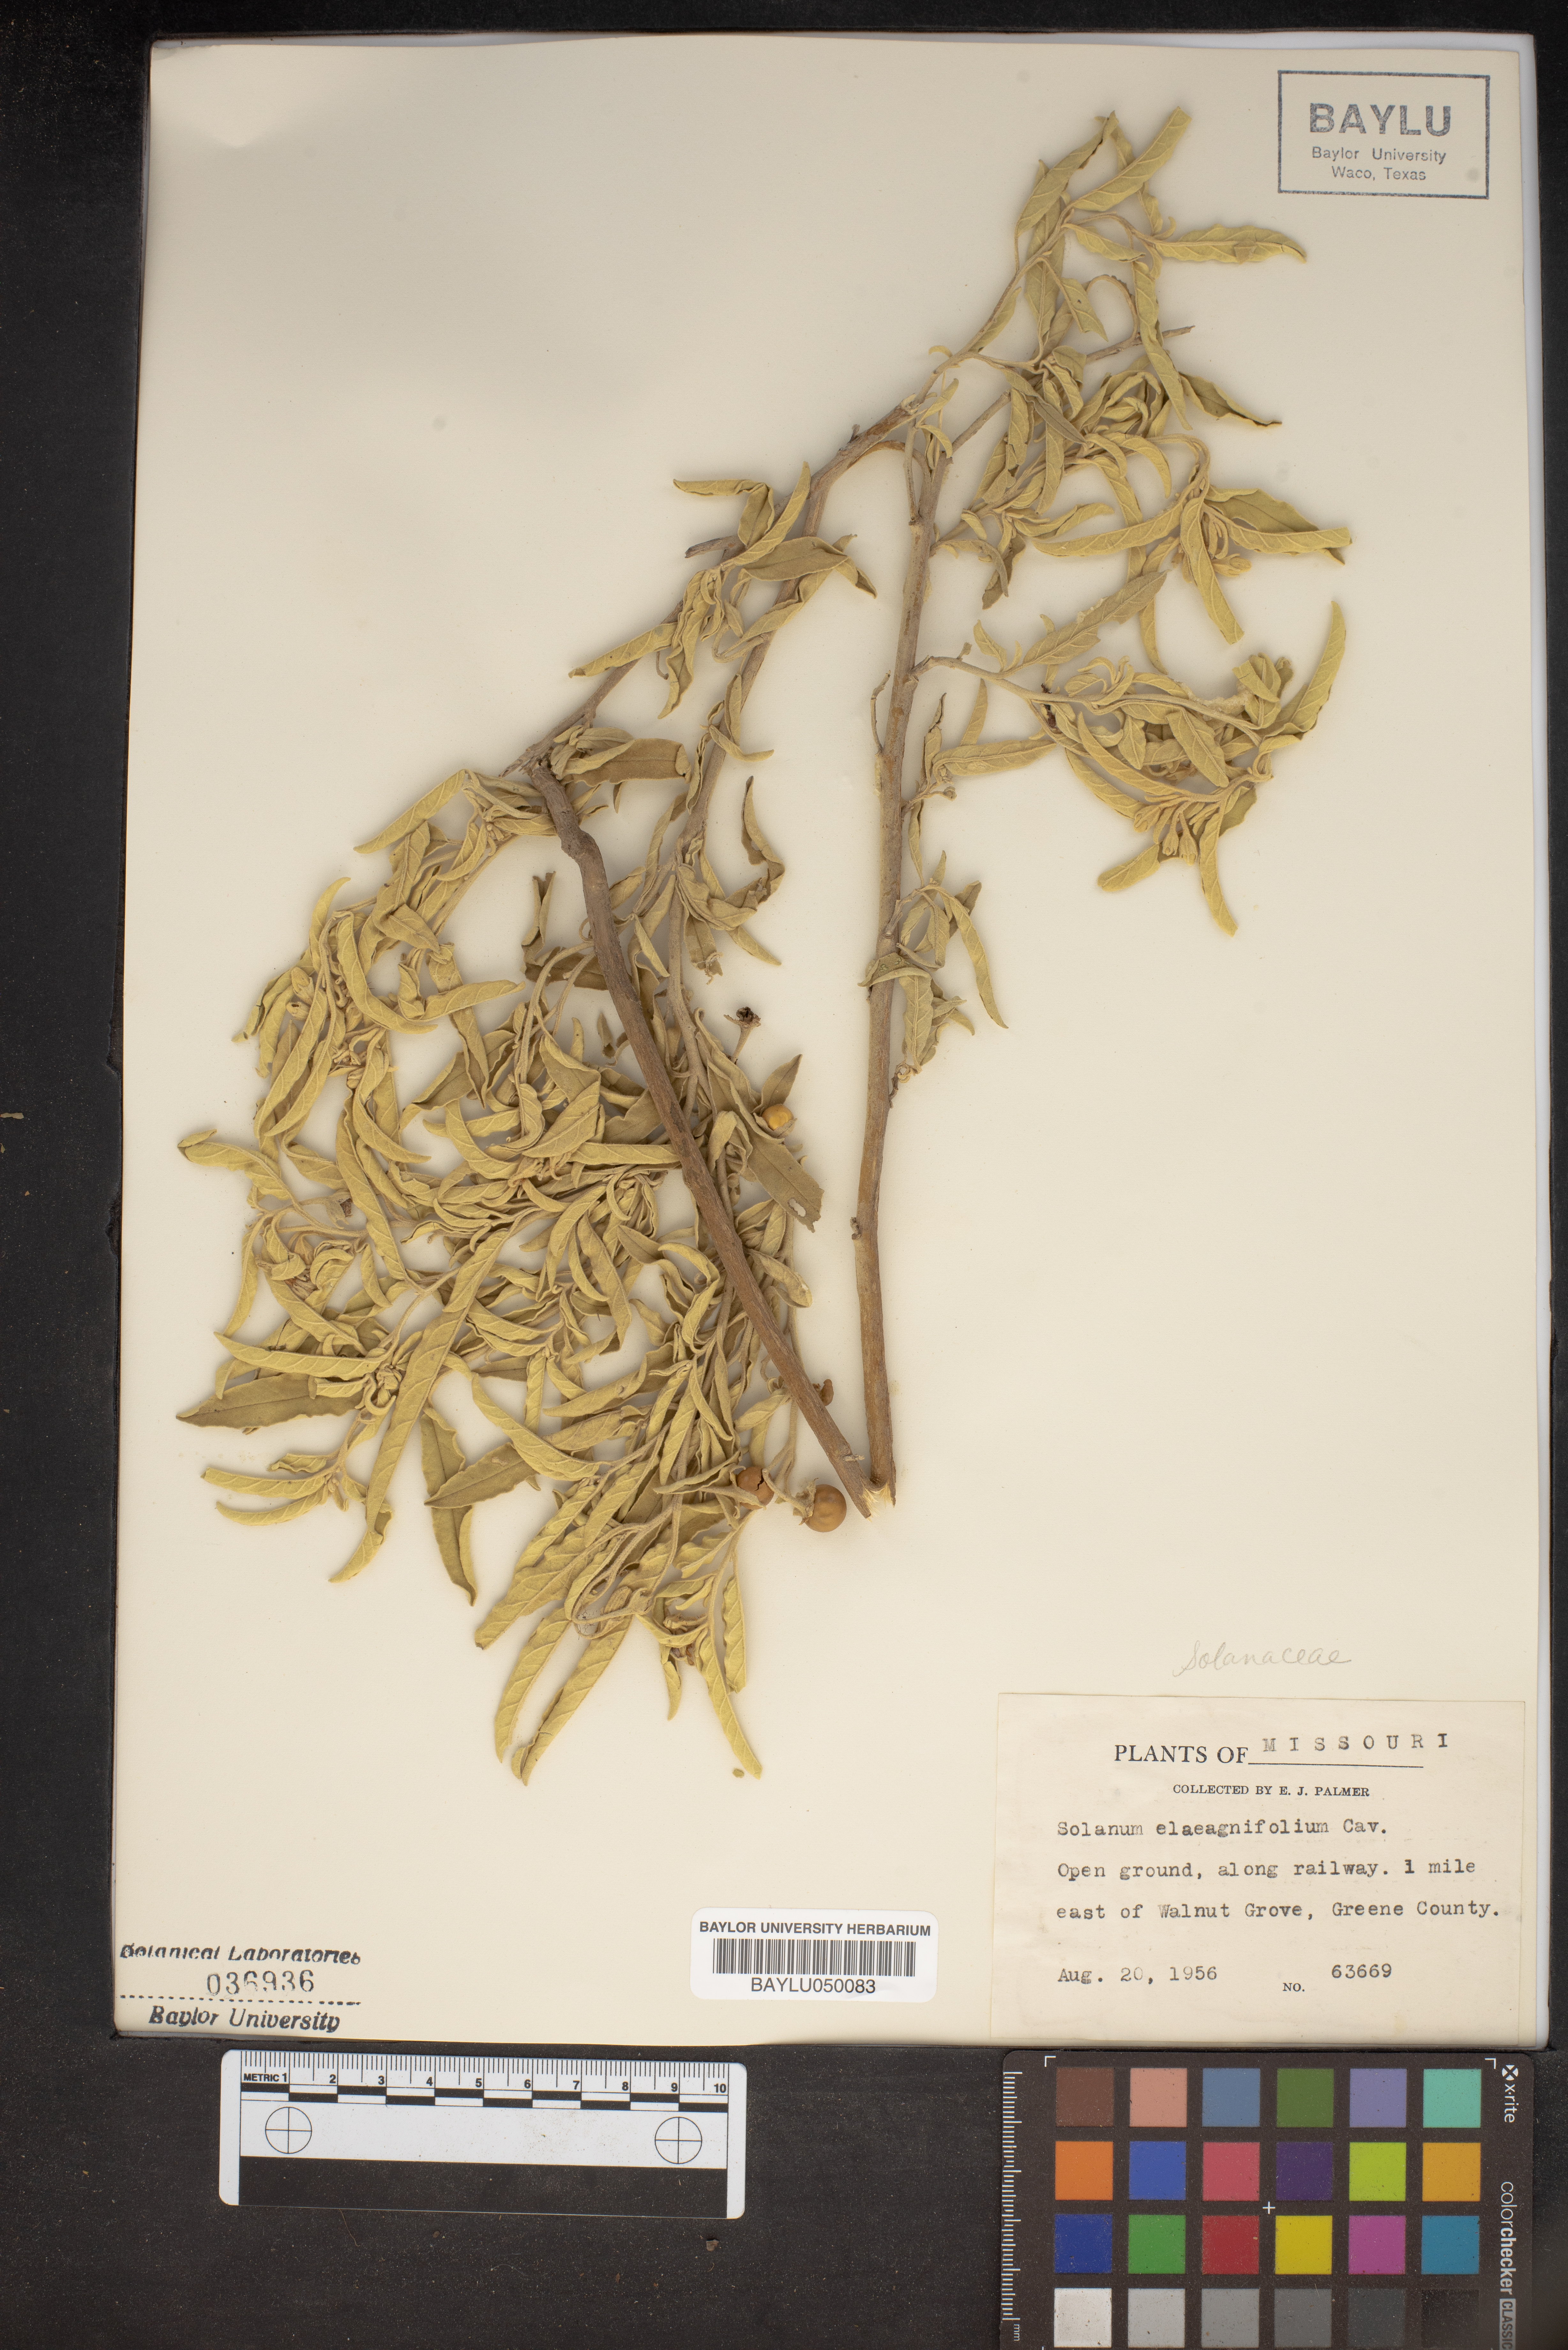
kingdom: Plantae
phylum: Tracheophyta
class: Magnoliopsida
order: Solanales
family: Solanaceae
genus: Solanum
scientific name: Solanum elaeagnifolium
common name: Silverleaf nightshade
